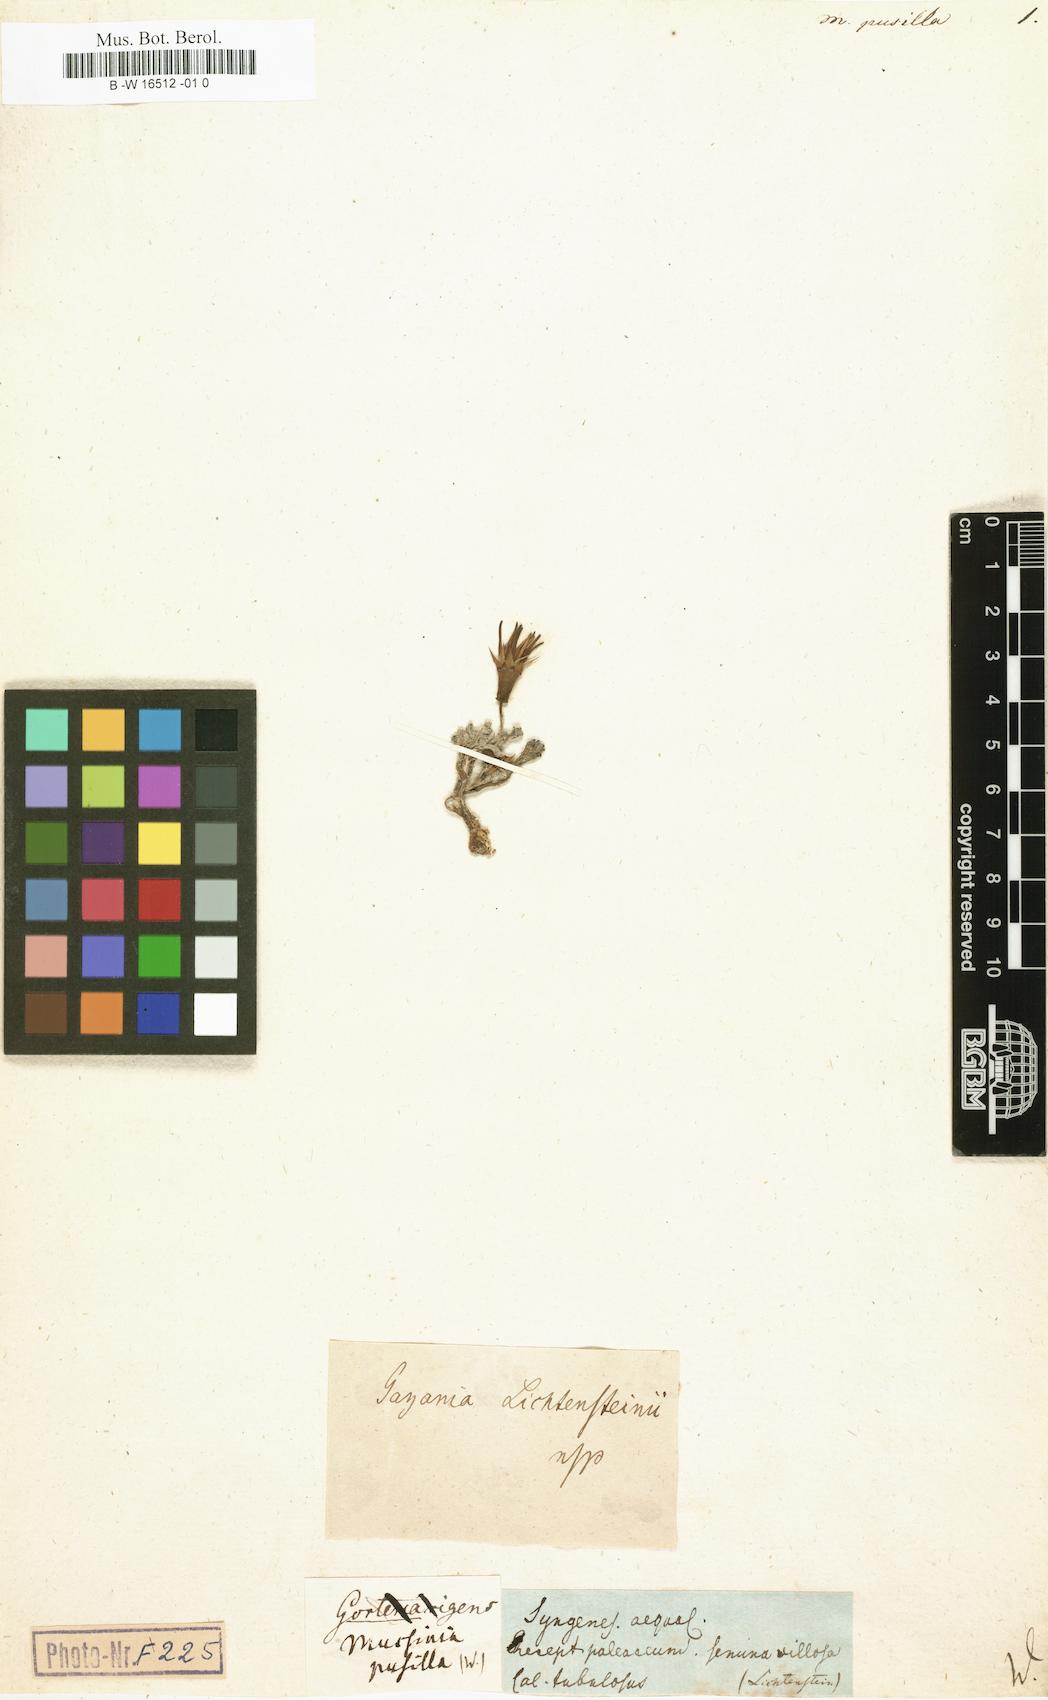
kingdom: Plantae
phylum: Tracheophyta
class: Magnoliopsida
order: Asterales
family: Asteraceae
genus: Gazania
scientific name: Gazania lichtensteinii
